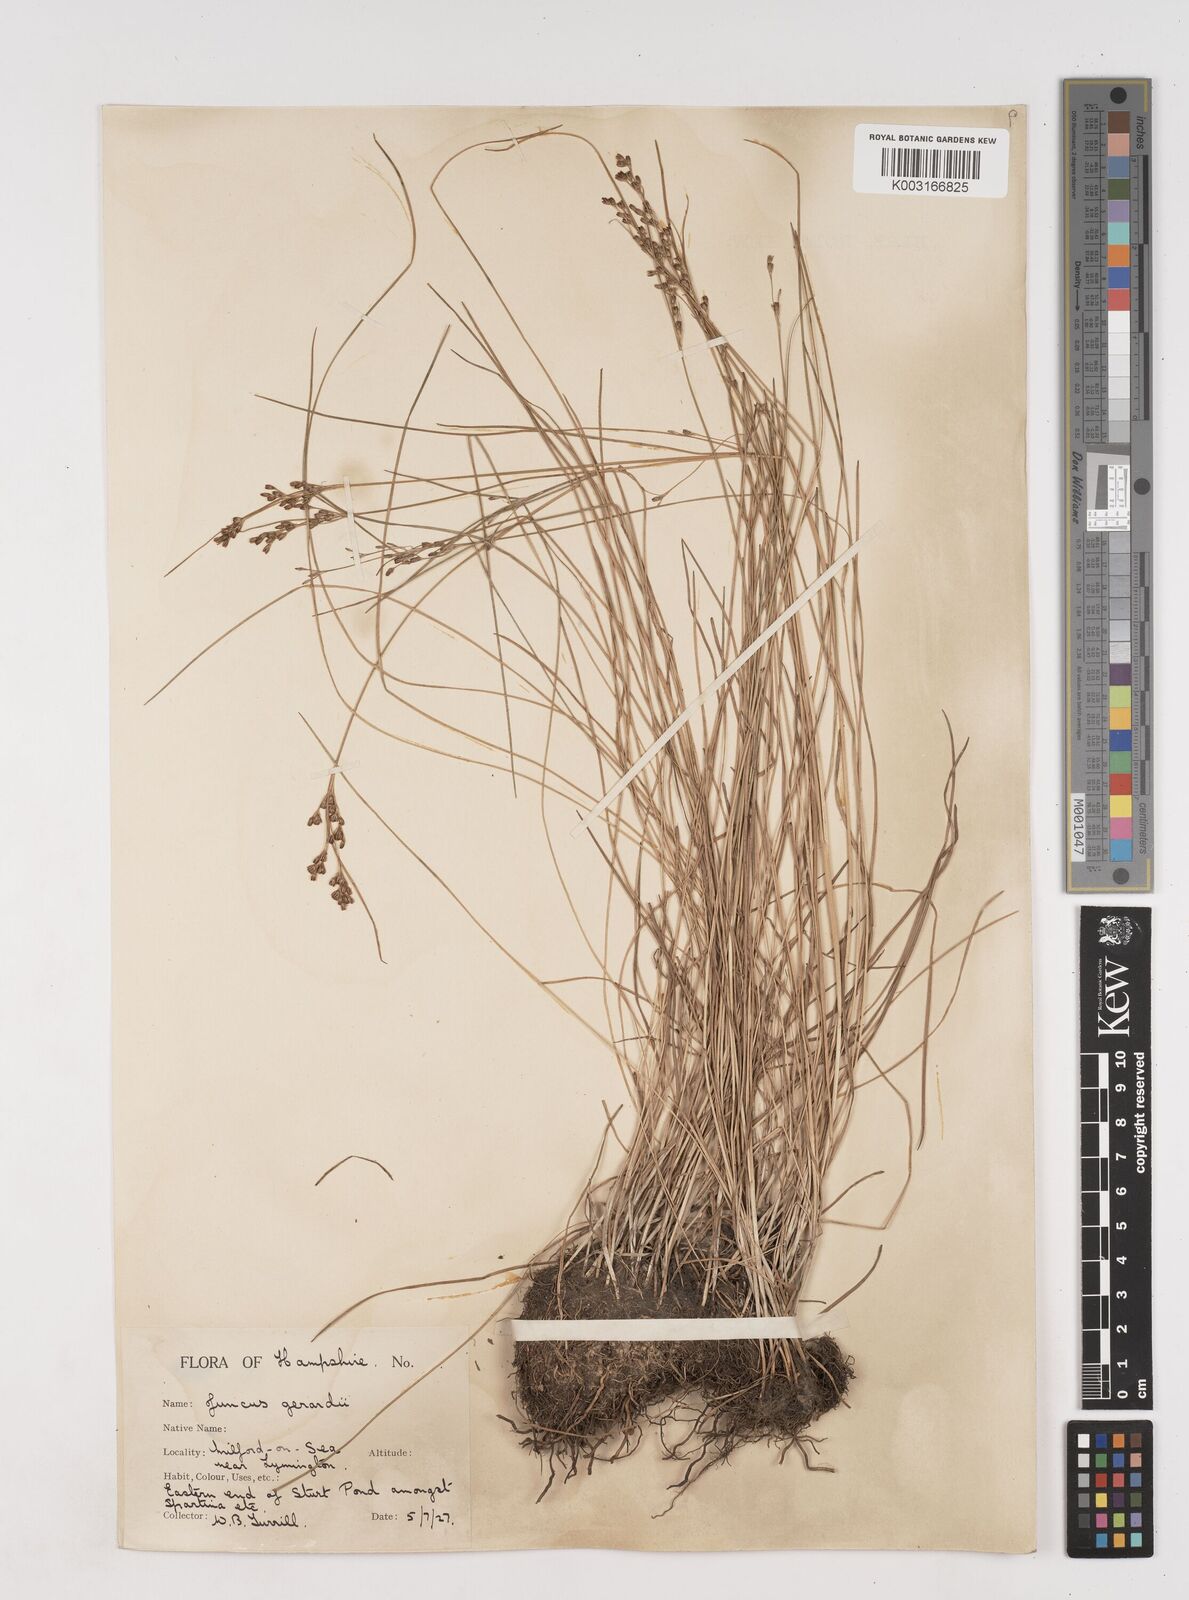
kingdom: Plantae
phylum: Tracheophyta
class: Liliopsida
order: Poales
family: Juncaceae
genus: Juncus
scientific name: Juncus gerardi
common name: Saltmarsh rush
